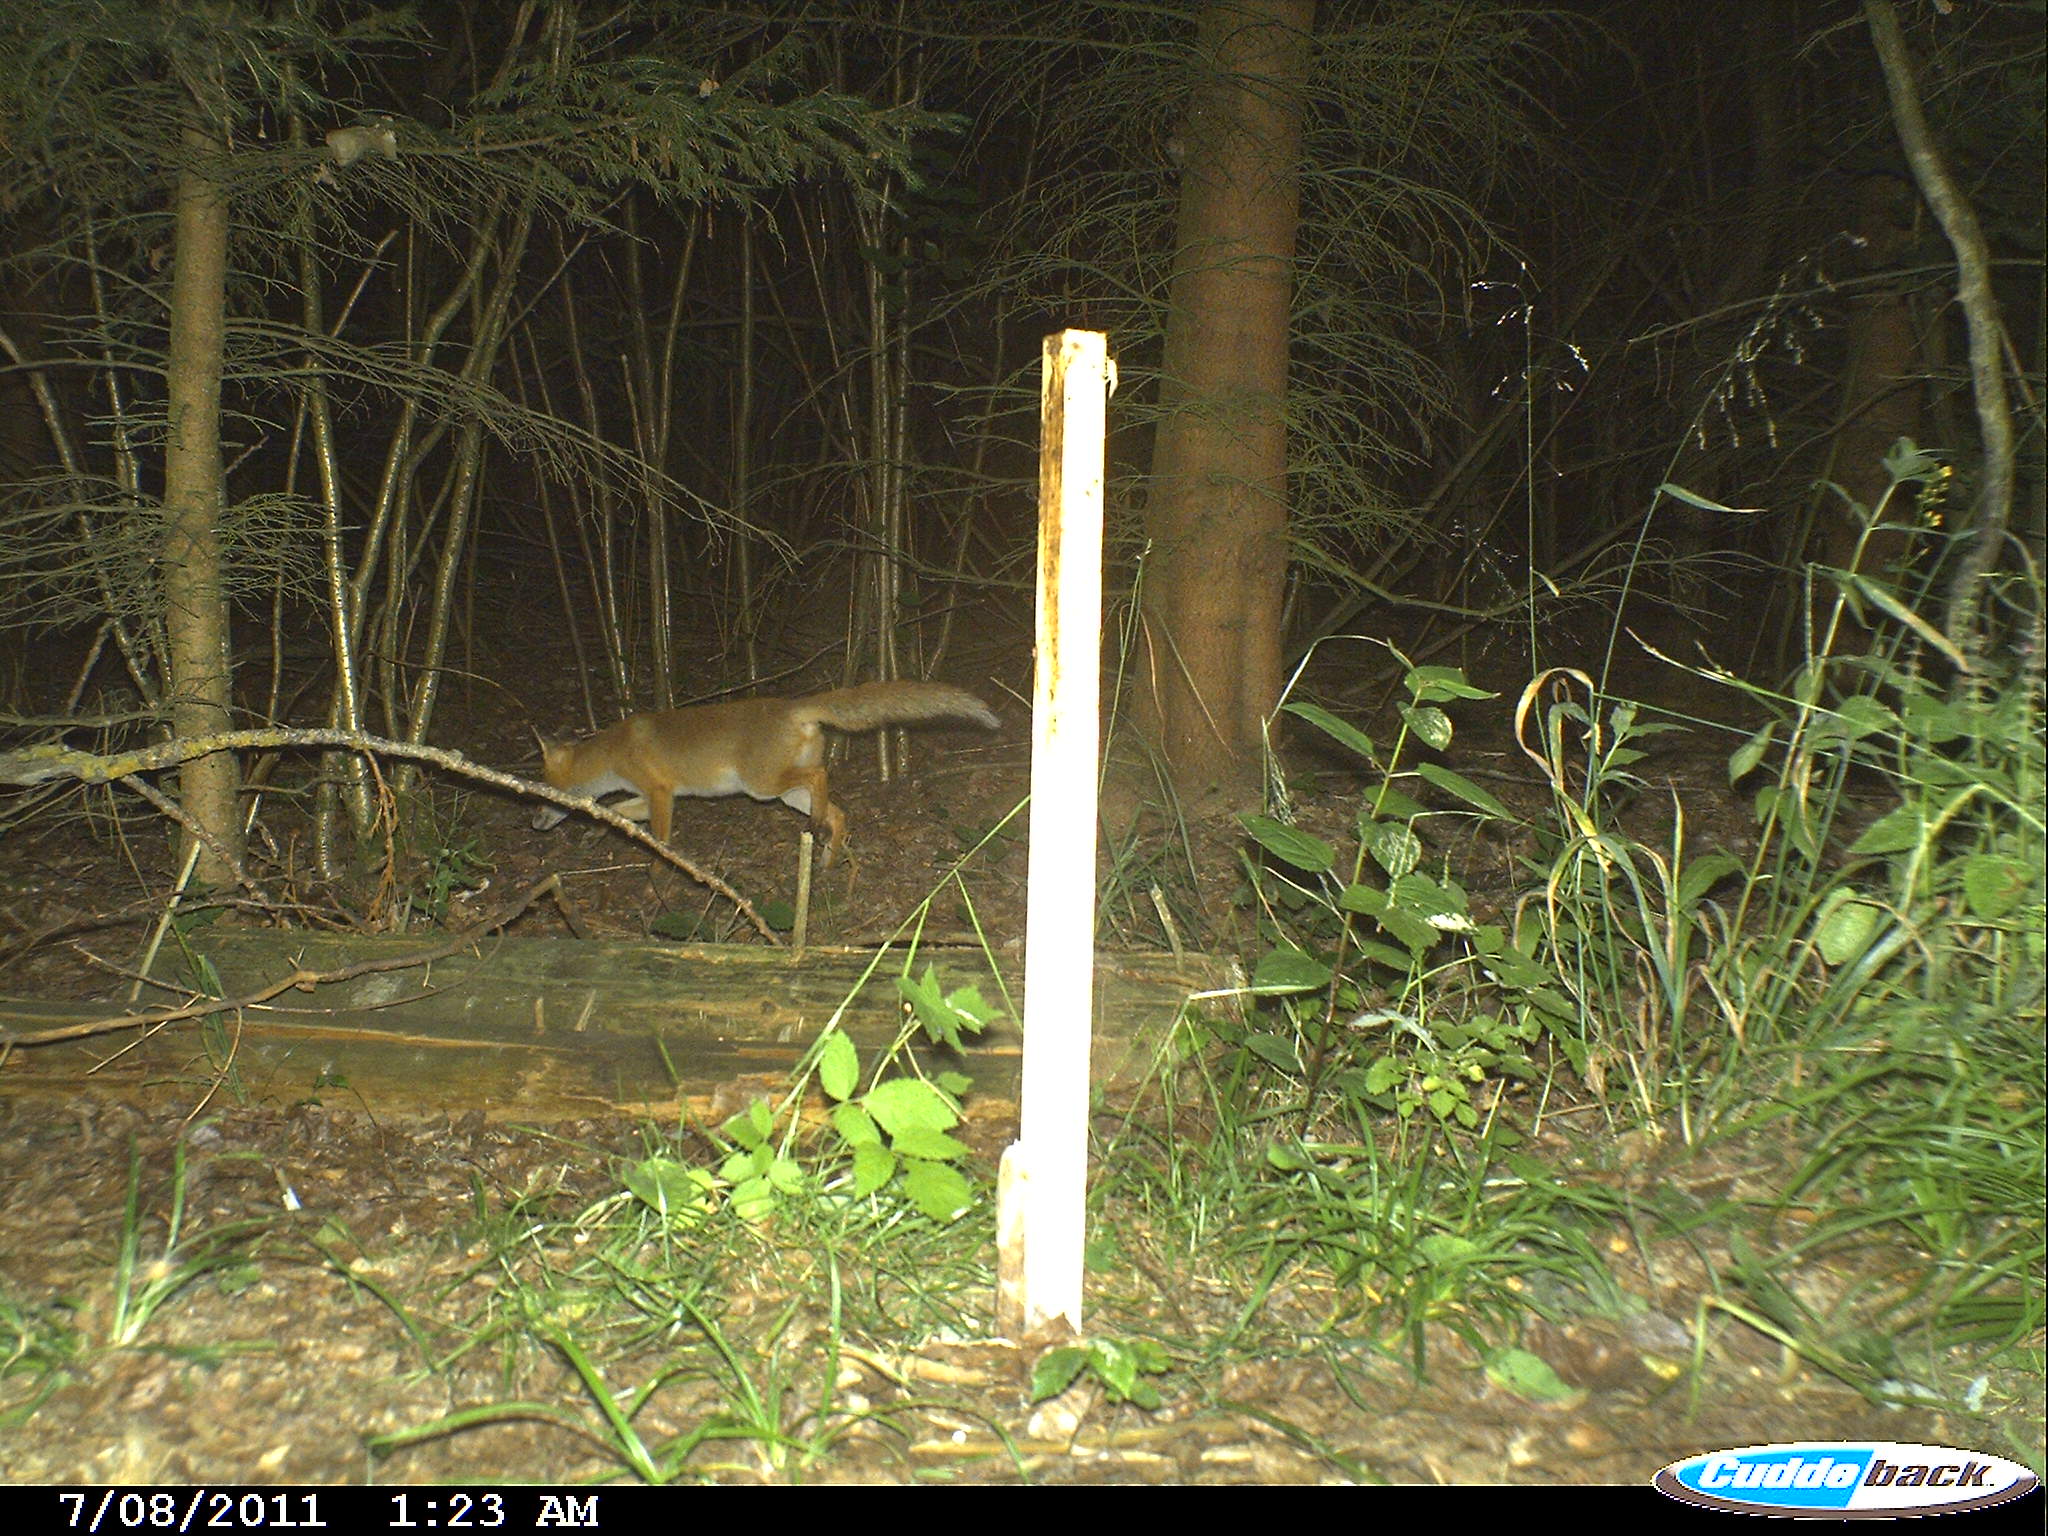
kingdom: Animalia
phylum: Chordata
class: Mammalia
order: Carnivora
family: Canidae
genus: Vulpes
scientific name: Vulpes vulpes
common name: Red fox
